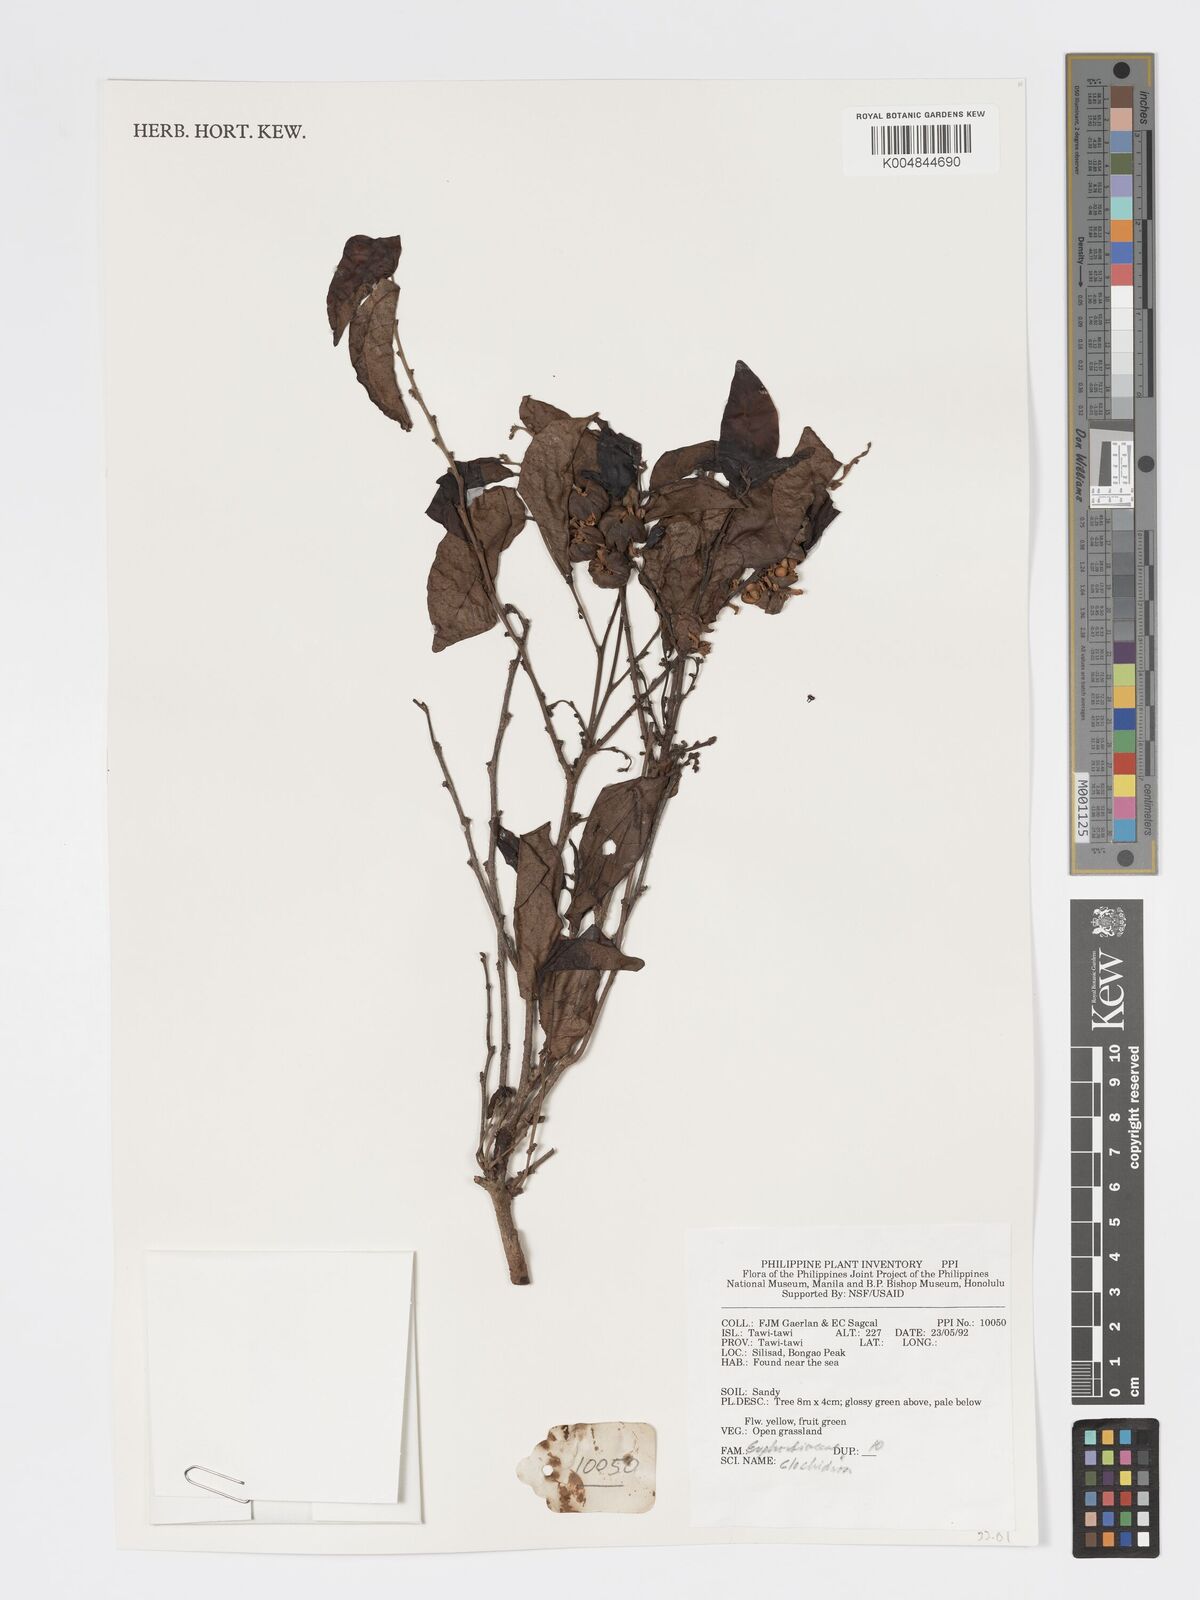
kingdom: Plantae
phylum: Tracheophyta
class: Magnoliopsida
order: Malpighiales
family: Phyllanthaceae
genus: Glochidion
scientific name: Glochidion
